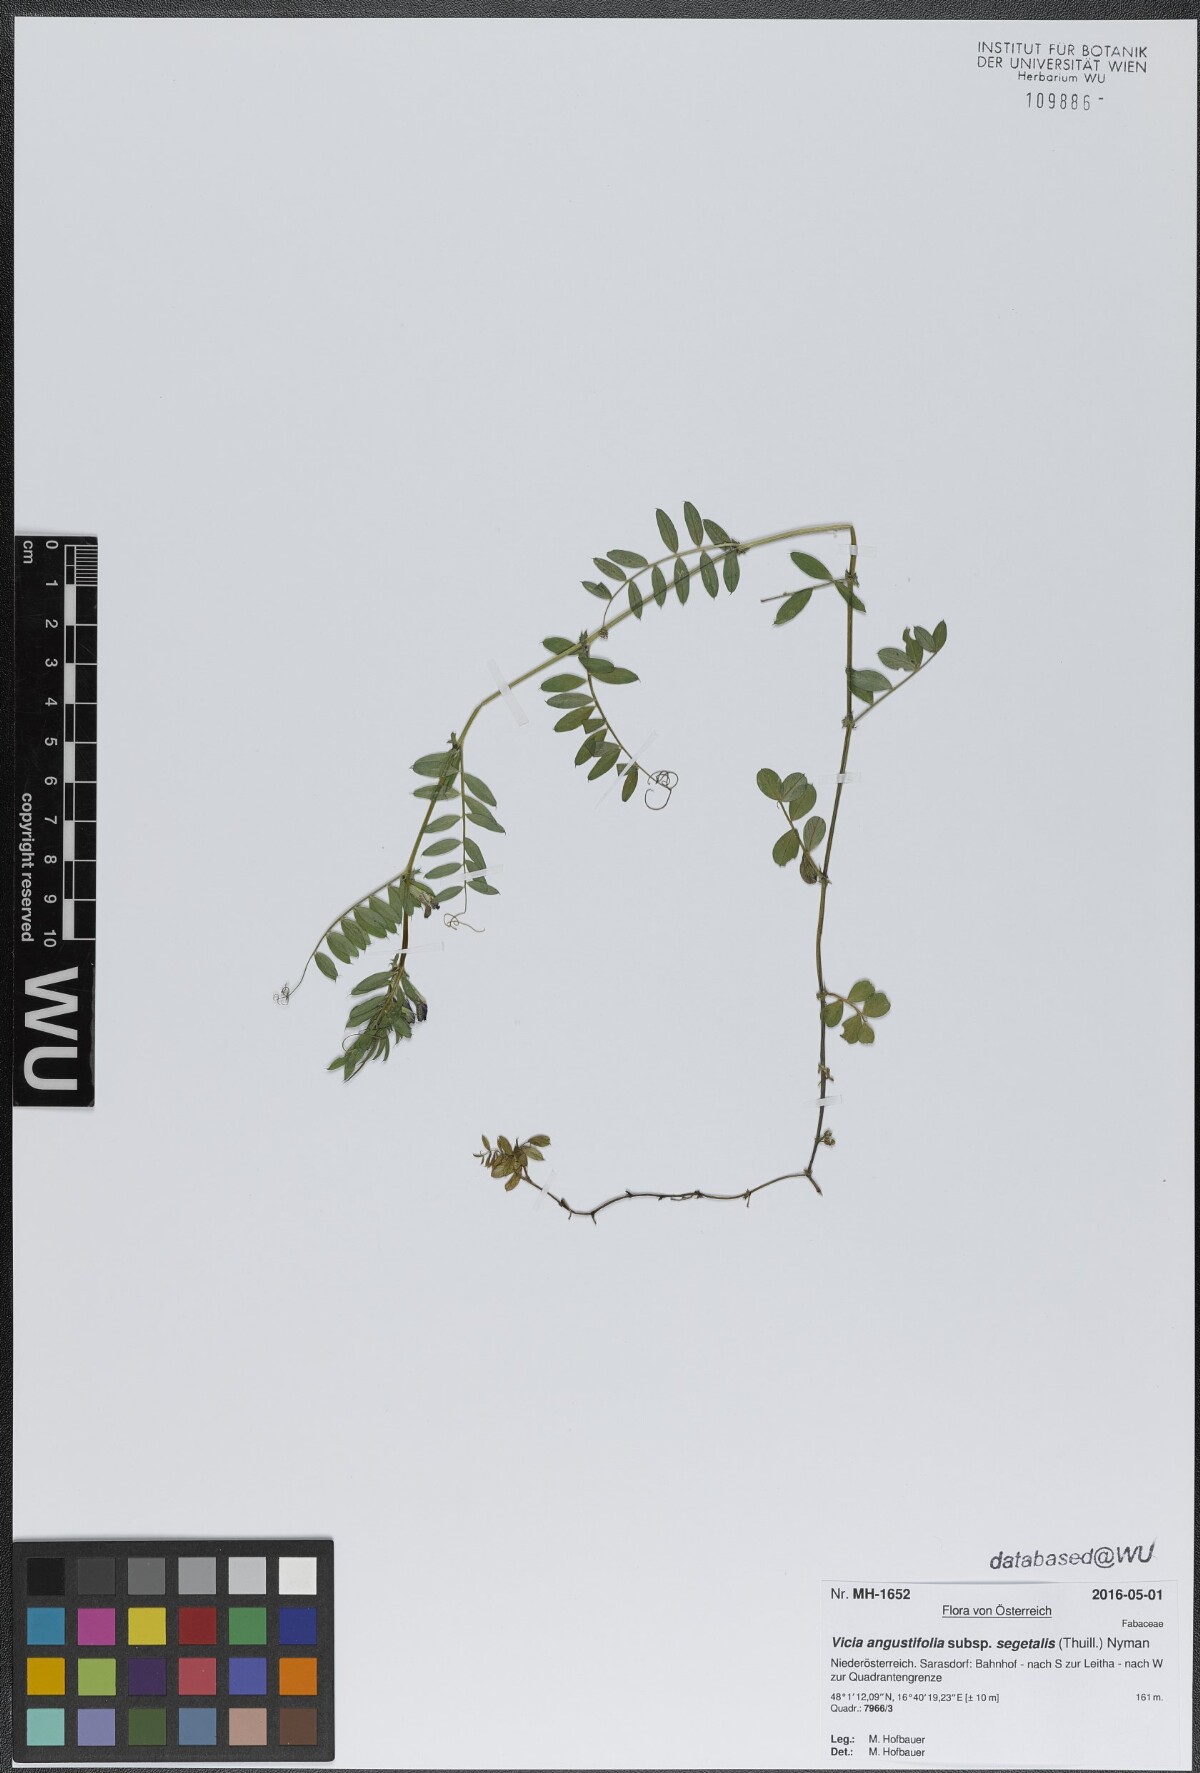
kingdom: Plantae
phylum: Tracheophyta
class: Magnoliopsida
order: Fabales
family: Fabaceae
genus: Vicia
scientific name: Vicia sativa
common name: Garden vetch
